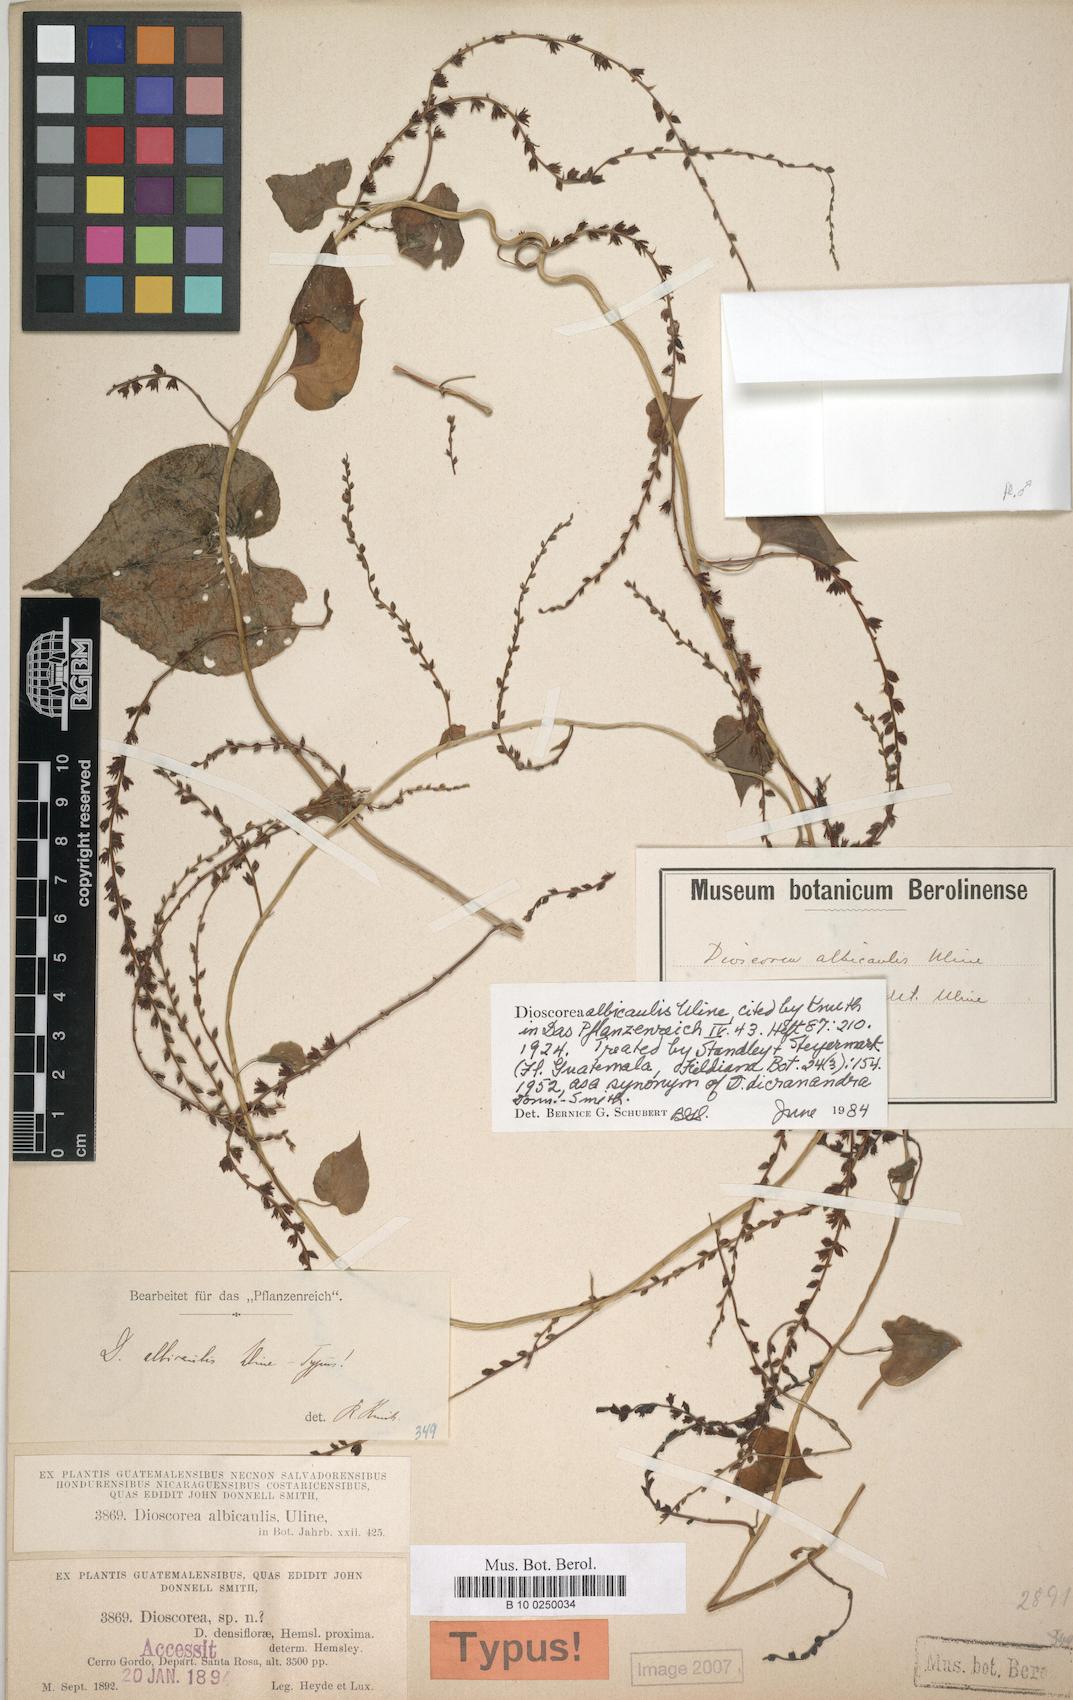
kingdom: Plantae
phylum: Tracheophyta
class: Liliopsida
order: Dioscoreales
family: Dioscoreaceae
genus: Dioscorea
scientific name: Dioscorea dicranandra
